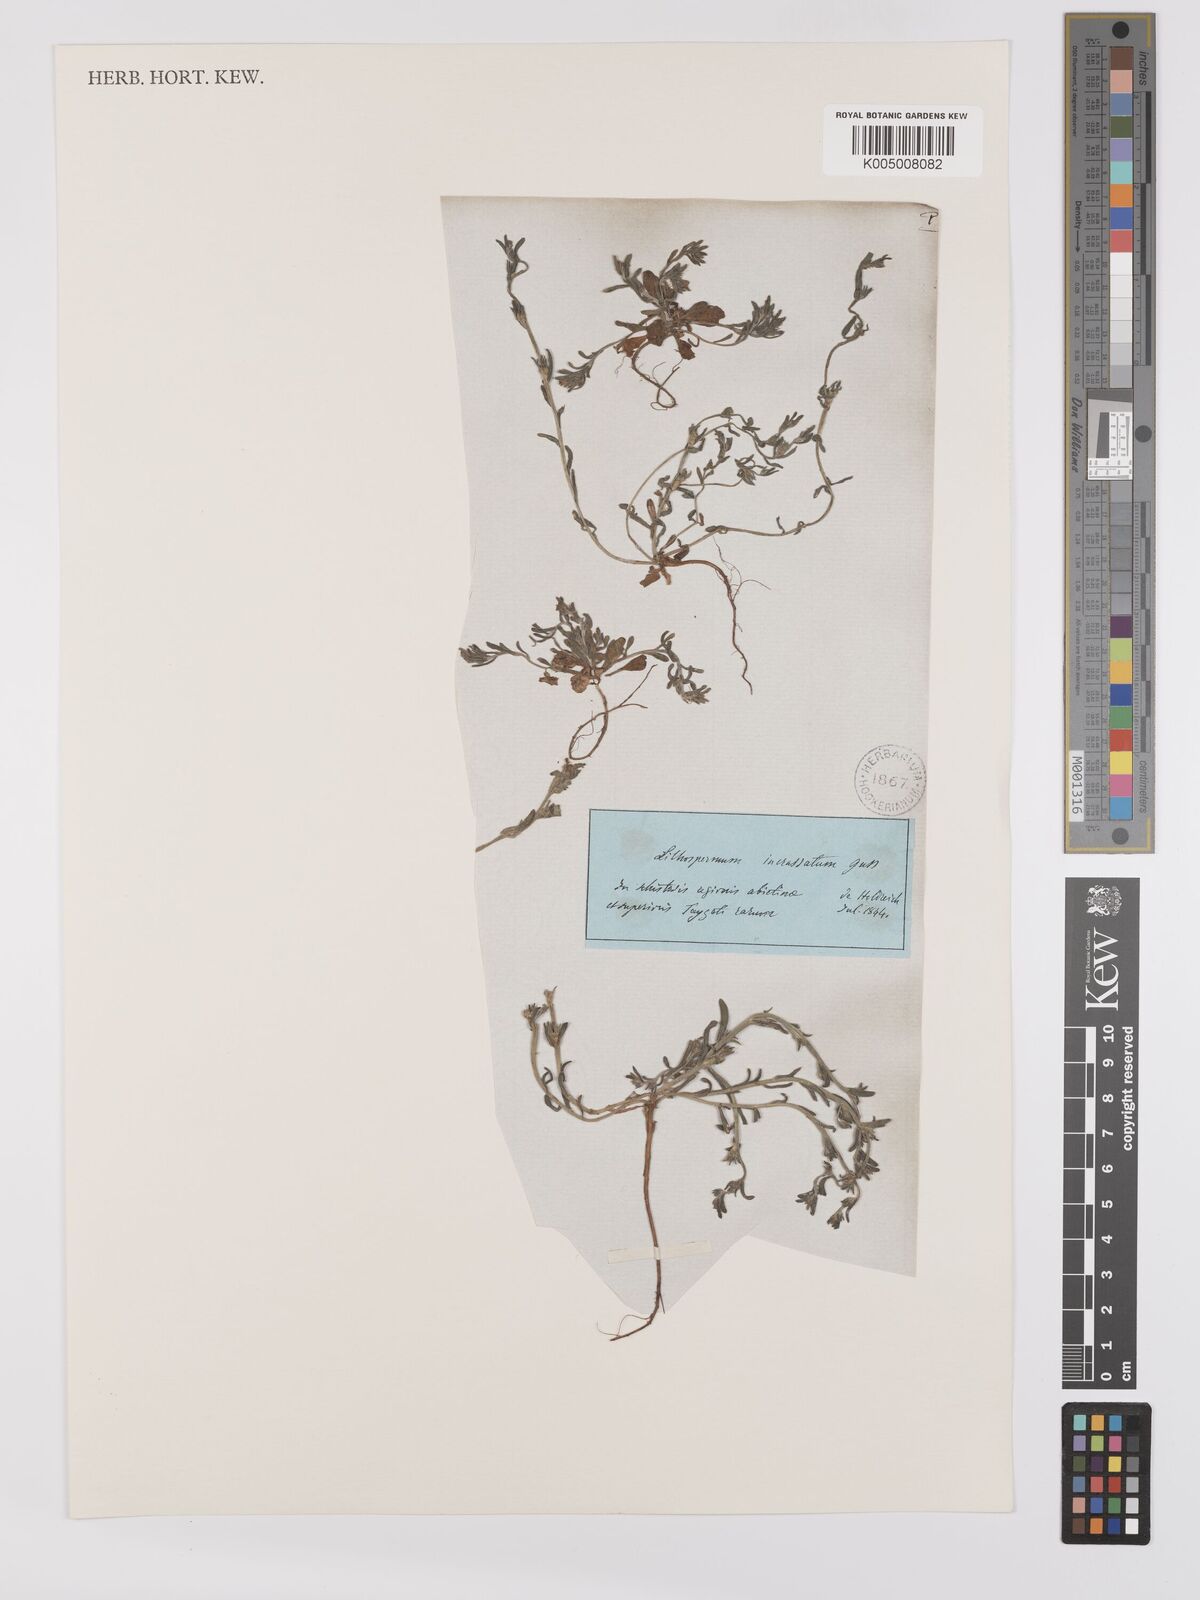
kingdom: Plantae
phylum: Tracheophyta
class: Magnoliopsida
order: Boraginales
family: Boraginaceae
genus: Buglossoides
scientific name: Buglossoides incrassata
